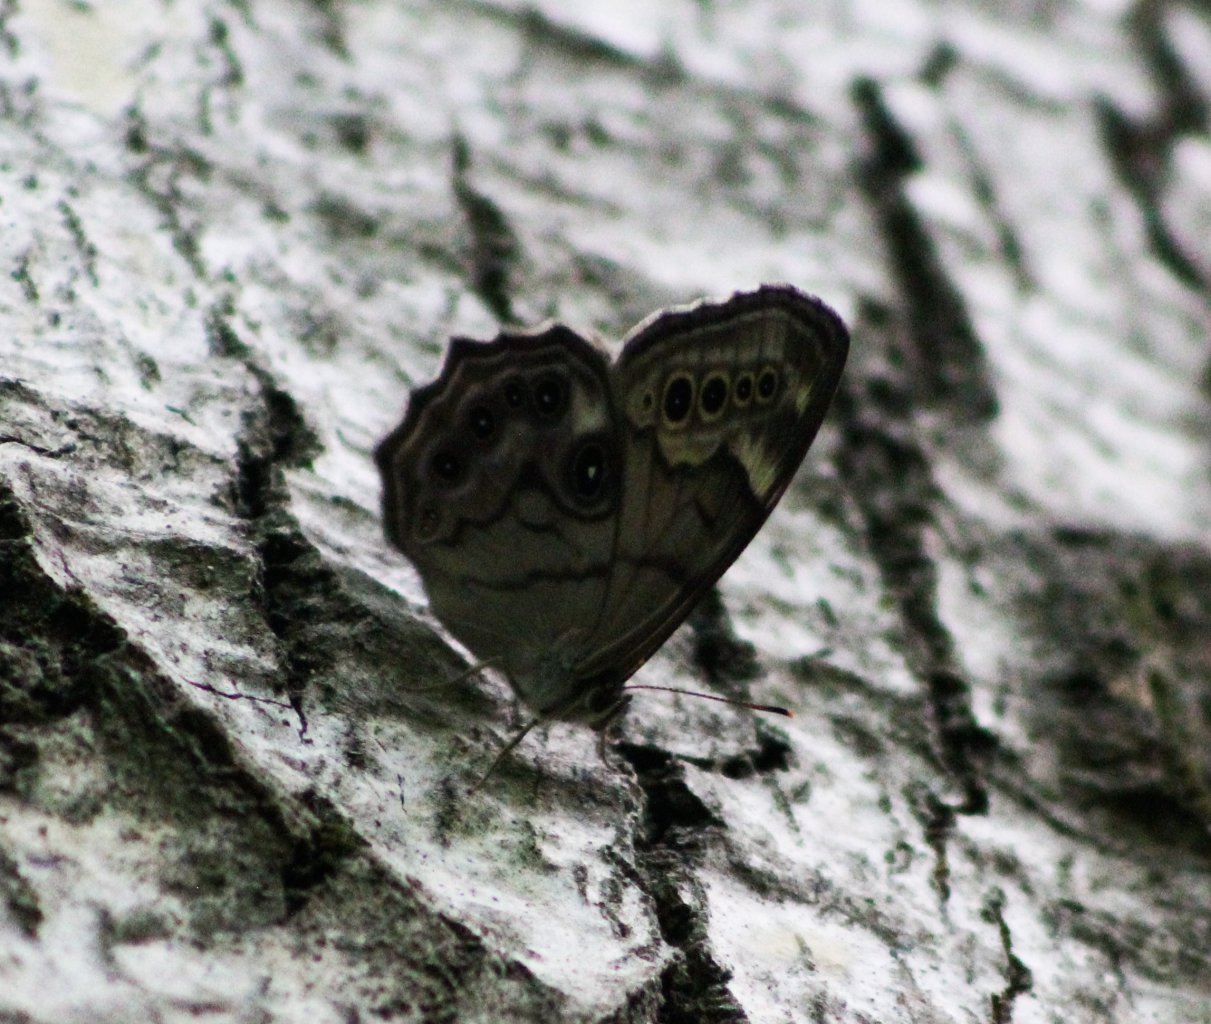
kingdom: Animalia
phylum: Arthropoda
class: Insecta
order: Lepidoptera
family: Nymphalidae
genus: Lethe
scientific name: Lethe anthedon
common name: Northern Pearly-Eye
